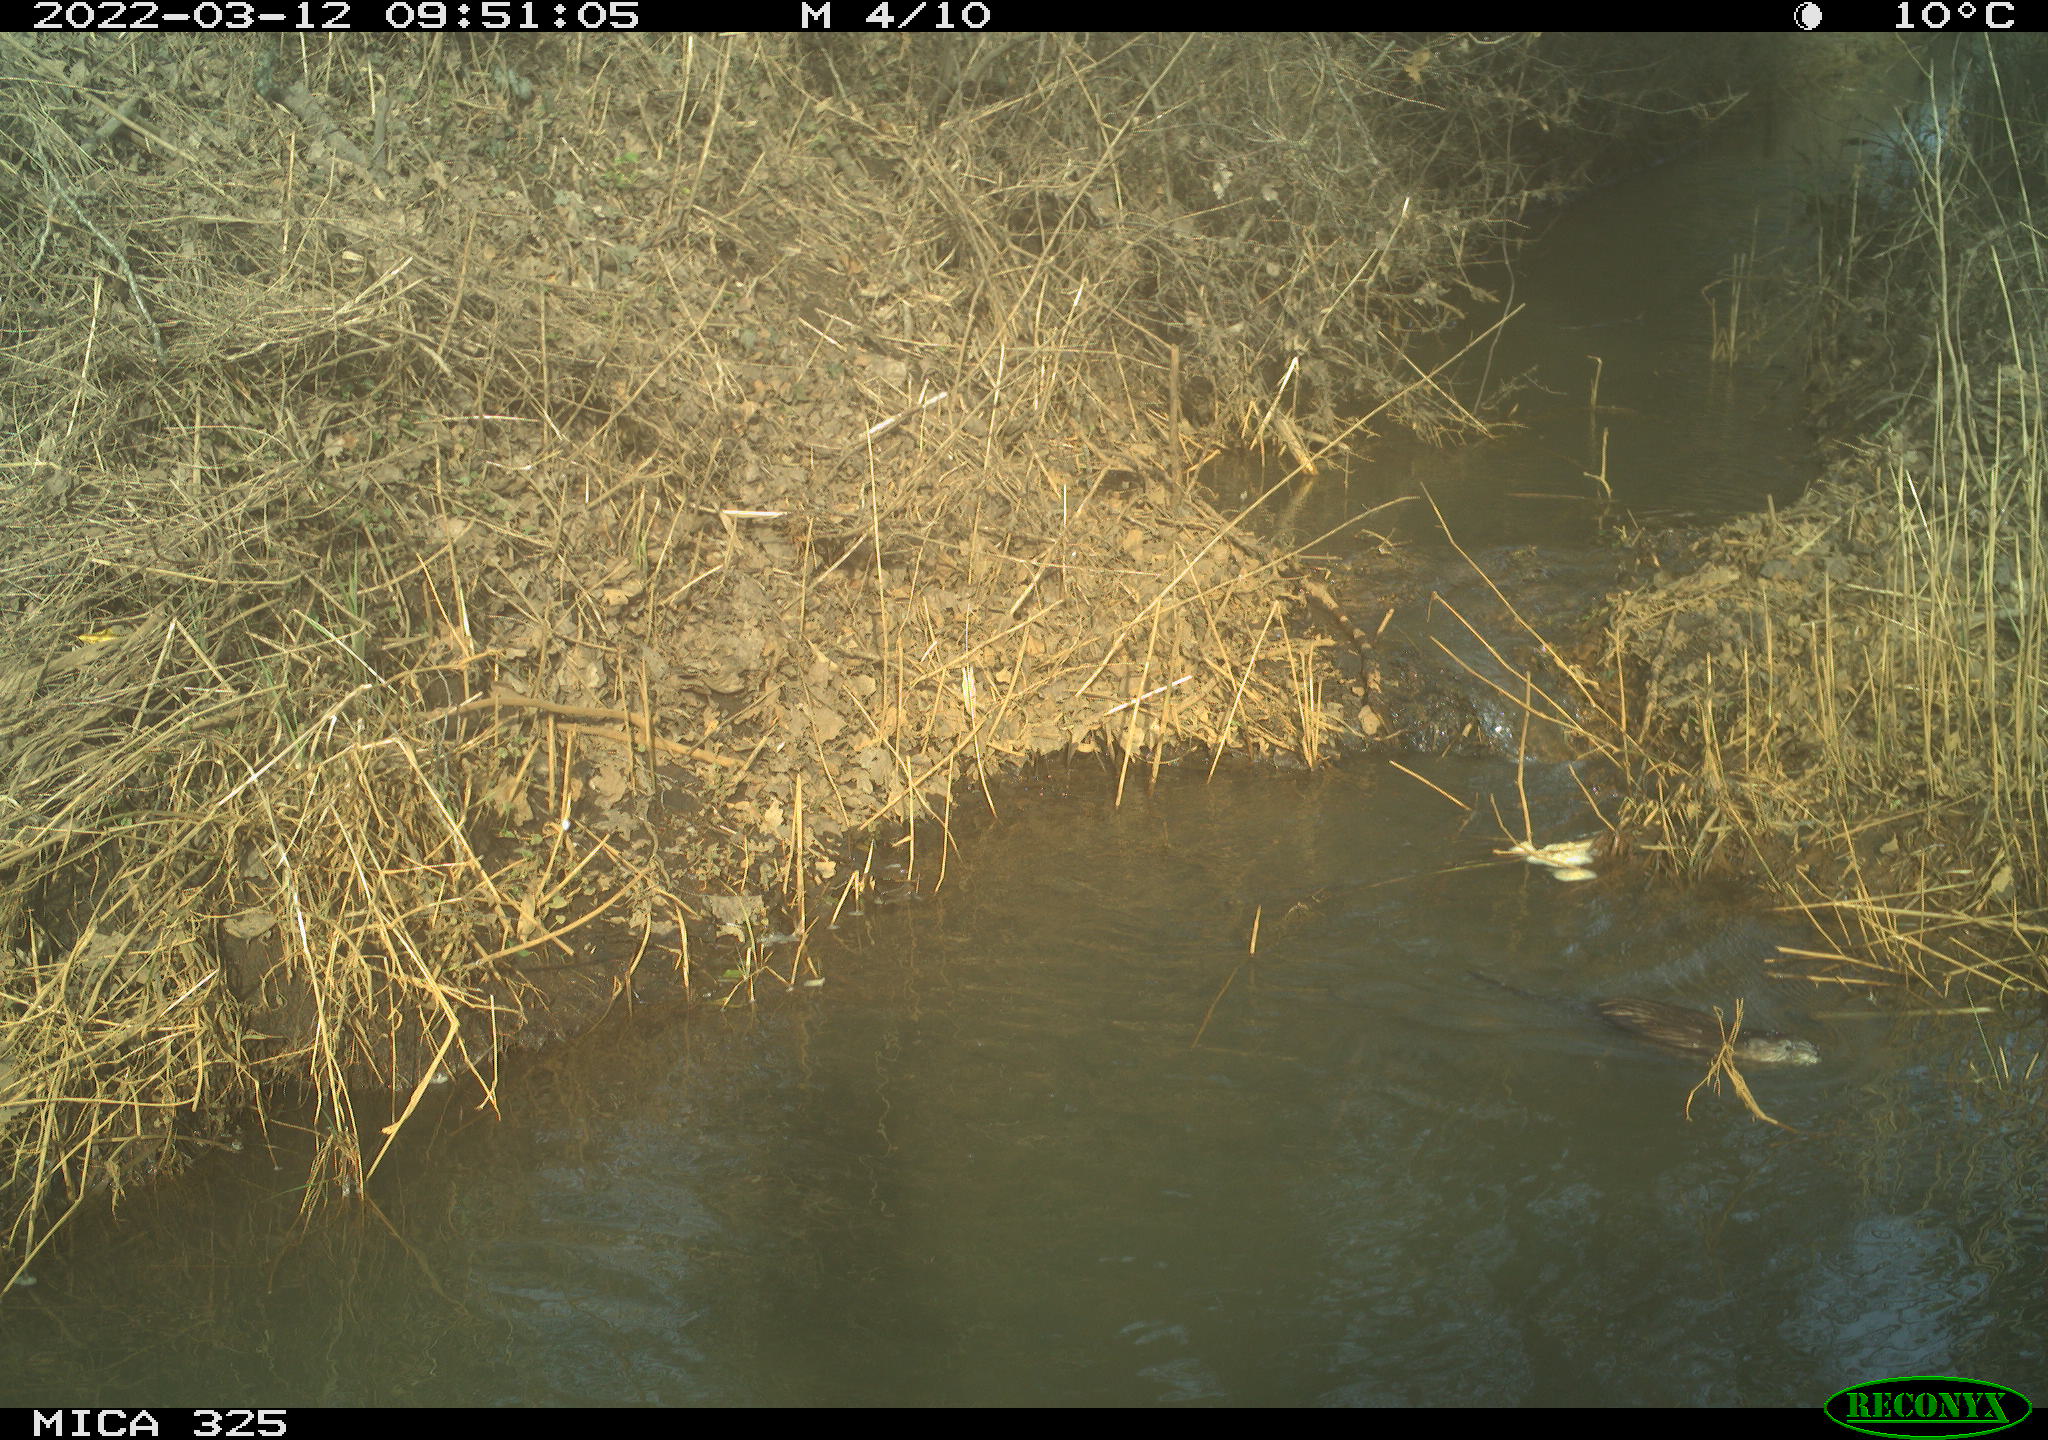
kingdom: Animalia
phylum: Chordata
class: Mammalia
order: Rodentia
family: Cricetidae
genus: Ondatra
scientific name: Ondatra zibethicus
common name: Muskrat
